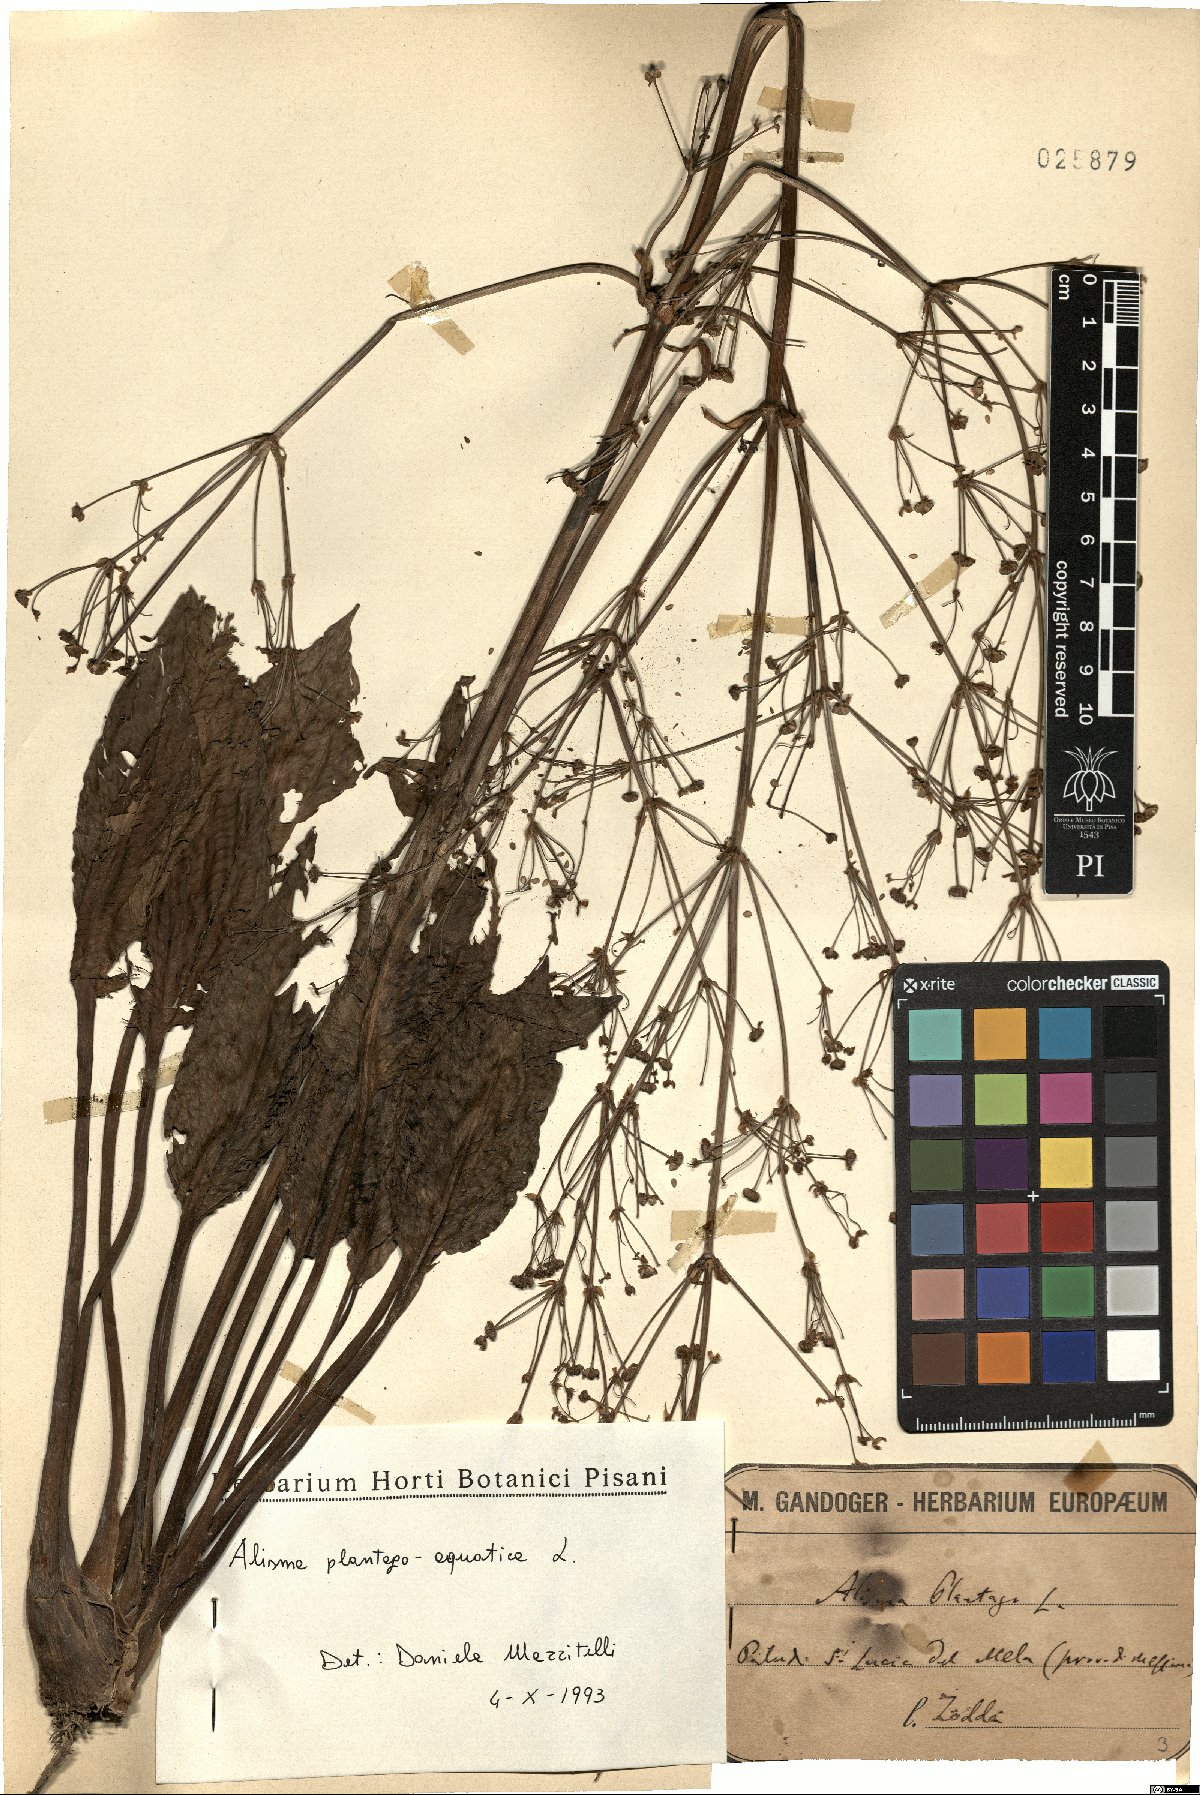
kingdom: Plantae
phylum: Tracheophyta
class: Liliopsida
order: Alismatales
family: Alismataceae
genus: Alisma
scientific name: Alisma plantago-aquatica
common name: Water-plantain
